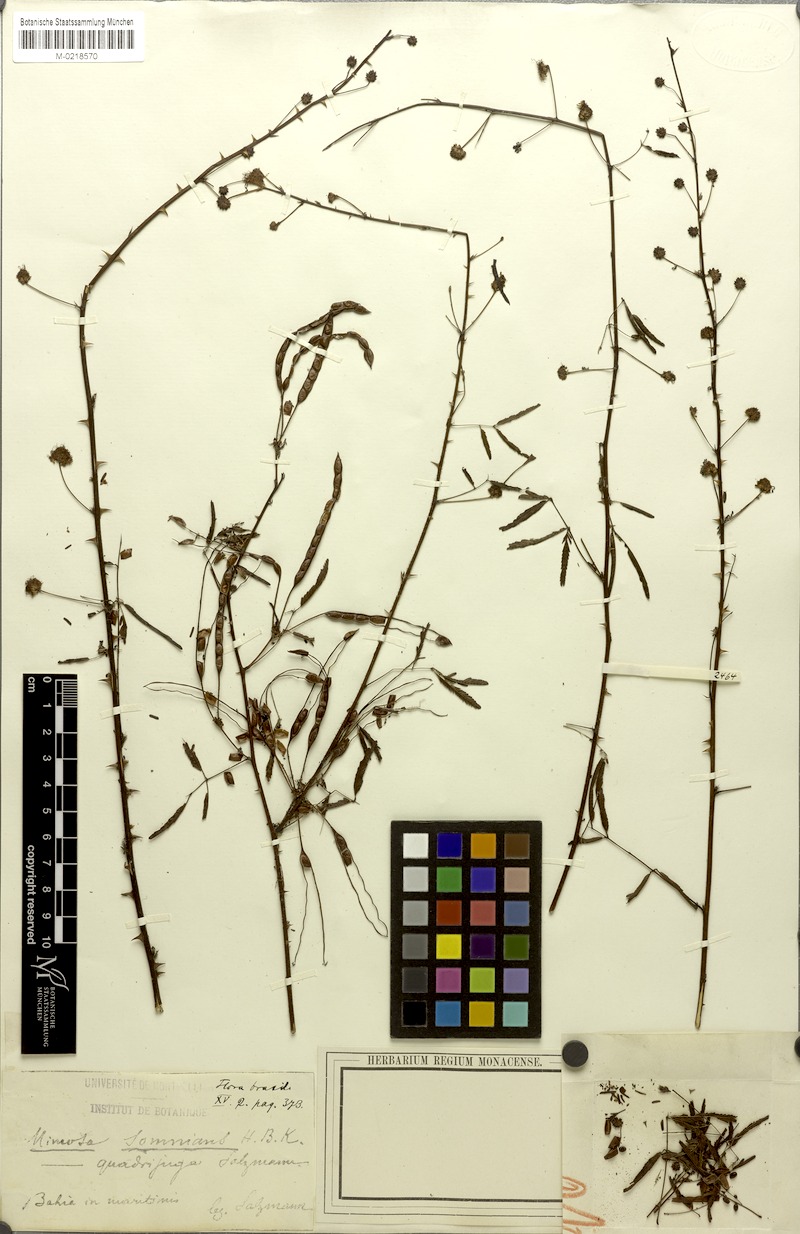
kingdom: Plantae
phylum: Tracheophyta
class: Magnoliopsida
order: Fabales
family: Fabaceae
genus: Mimosa
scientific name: Mimosa somnians
